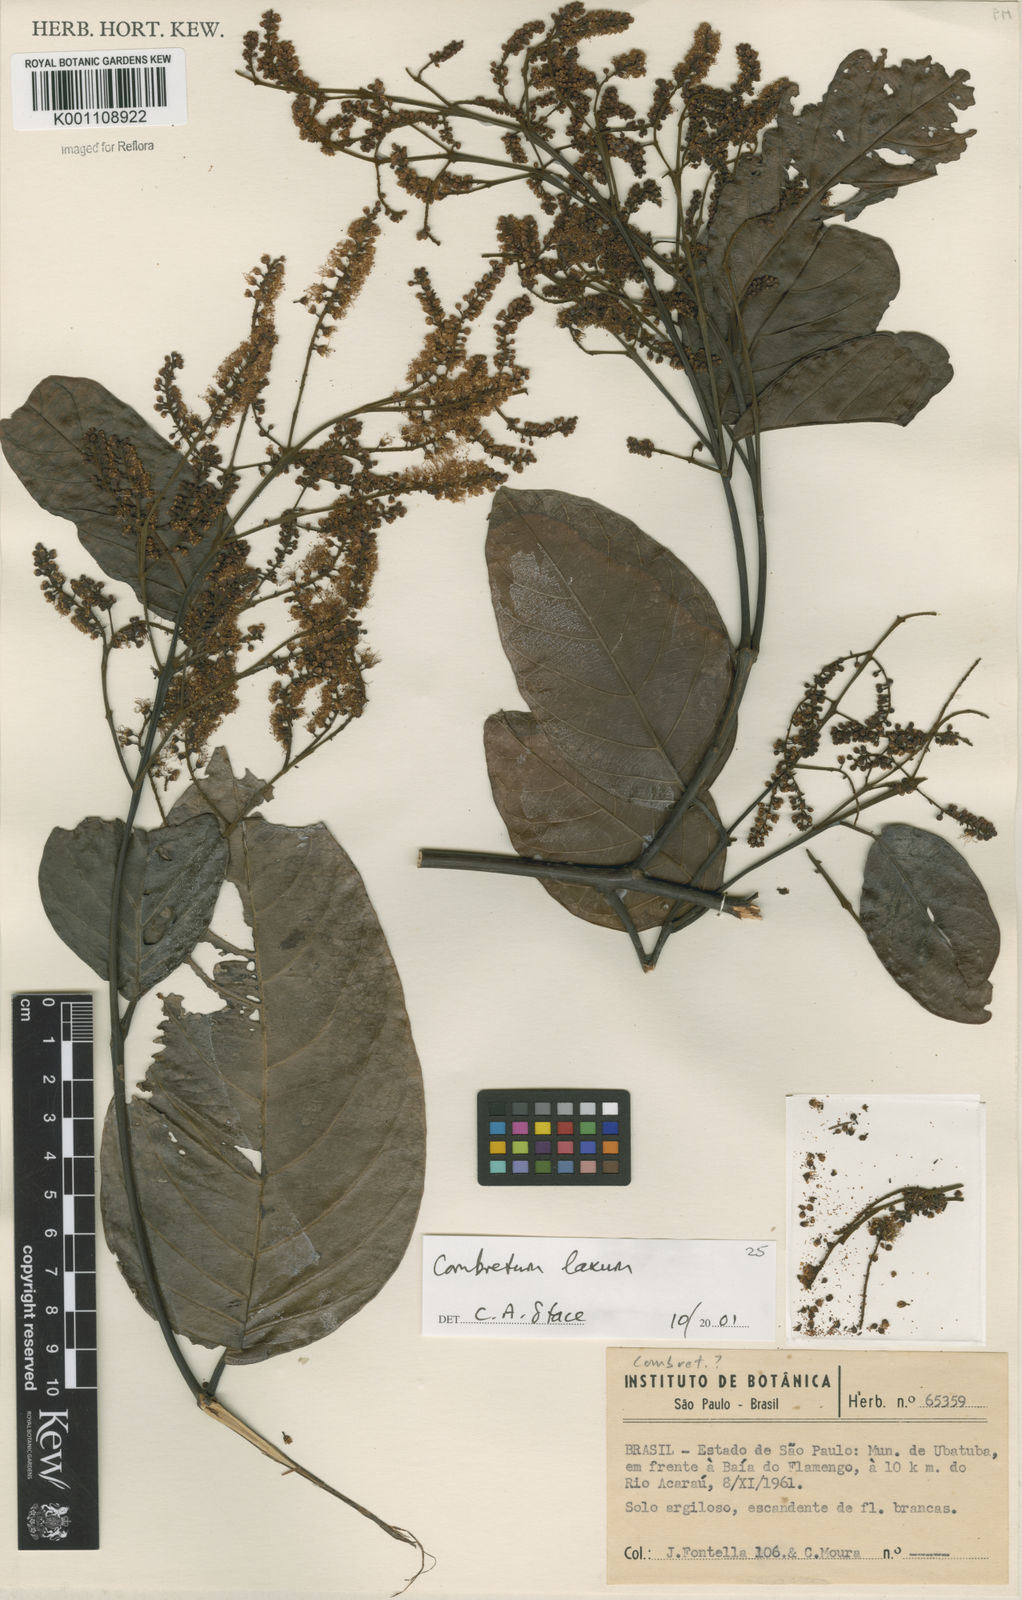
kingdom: Plantae
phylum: Tracheophyta
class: Magnoliopsida
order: Myrtales
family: Combretaceae
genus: Combretum
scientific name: Combretum laxum
